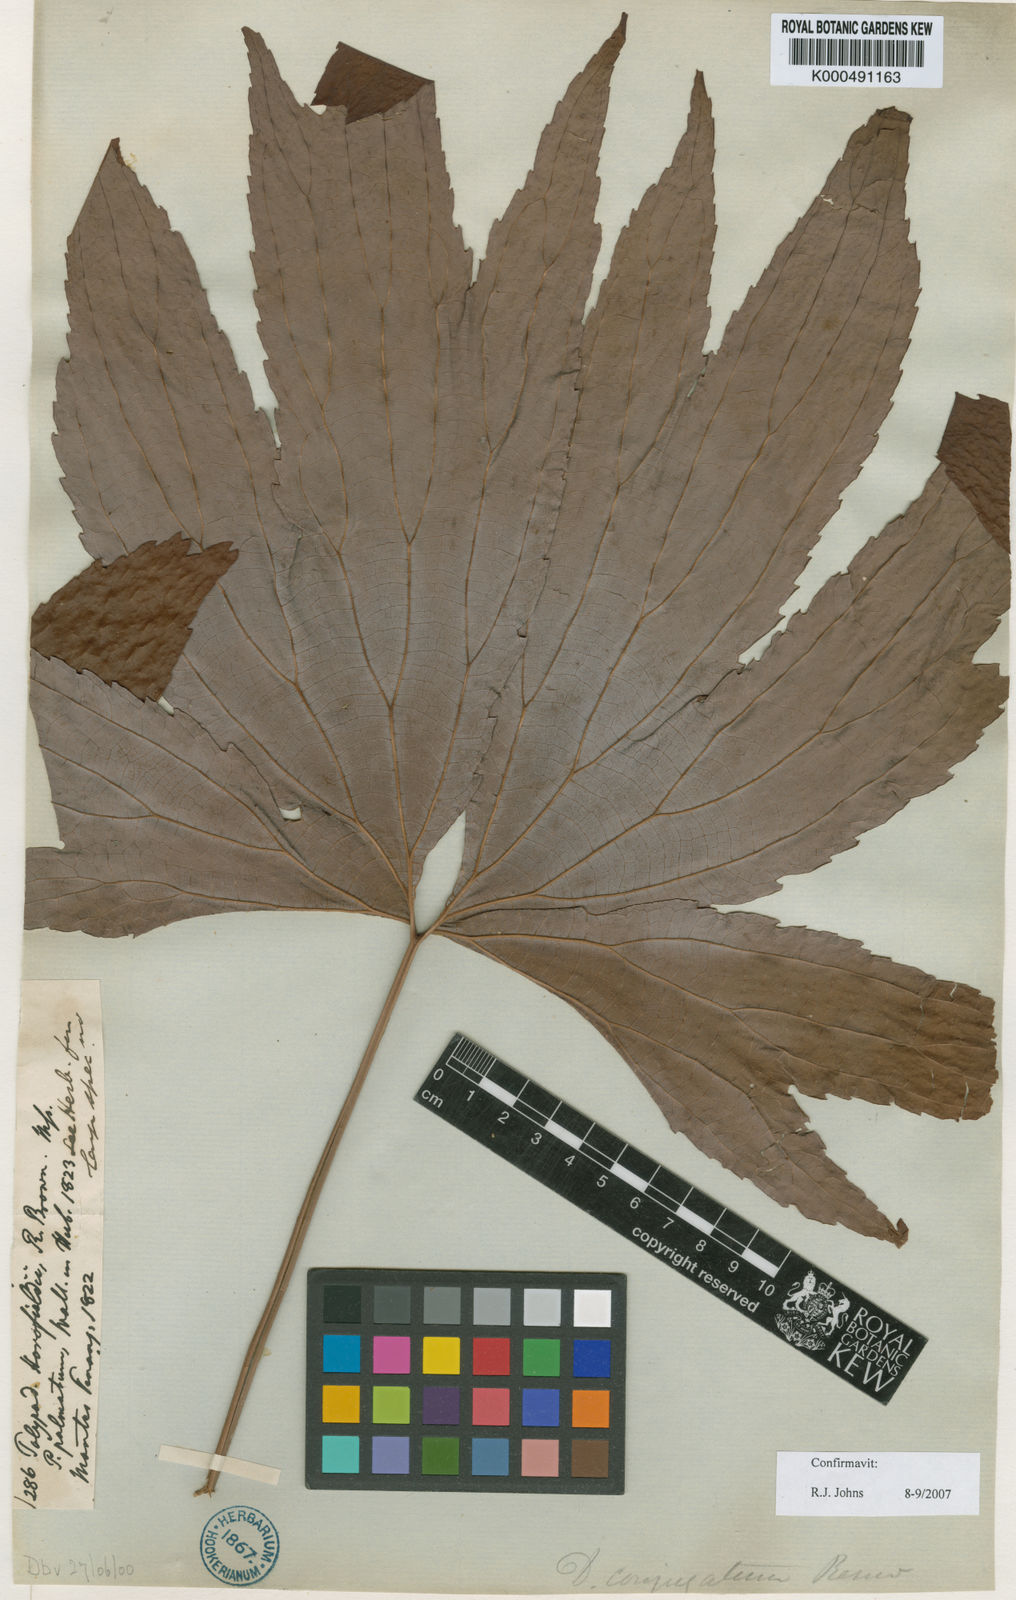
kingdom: Plantae
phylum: Tracheophyta
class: Polypodiopsida
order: Gleicheniales
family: Dipteridaceae
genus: Dipteris
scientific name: Dipteris conjugata
